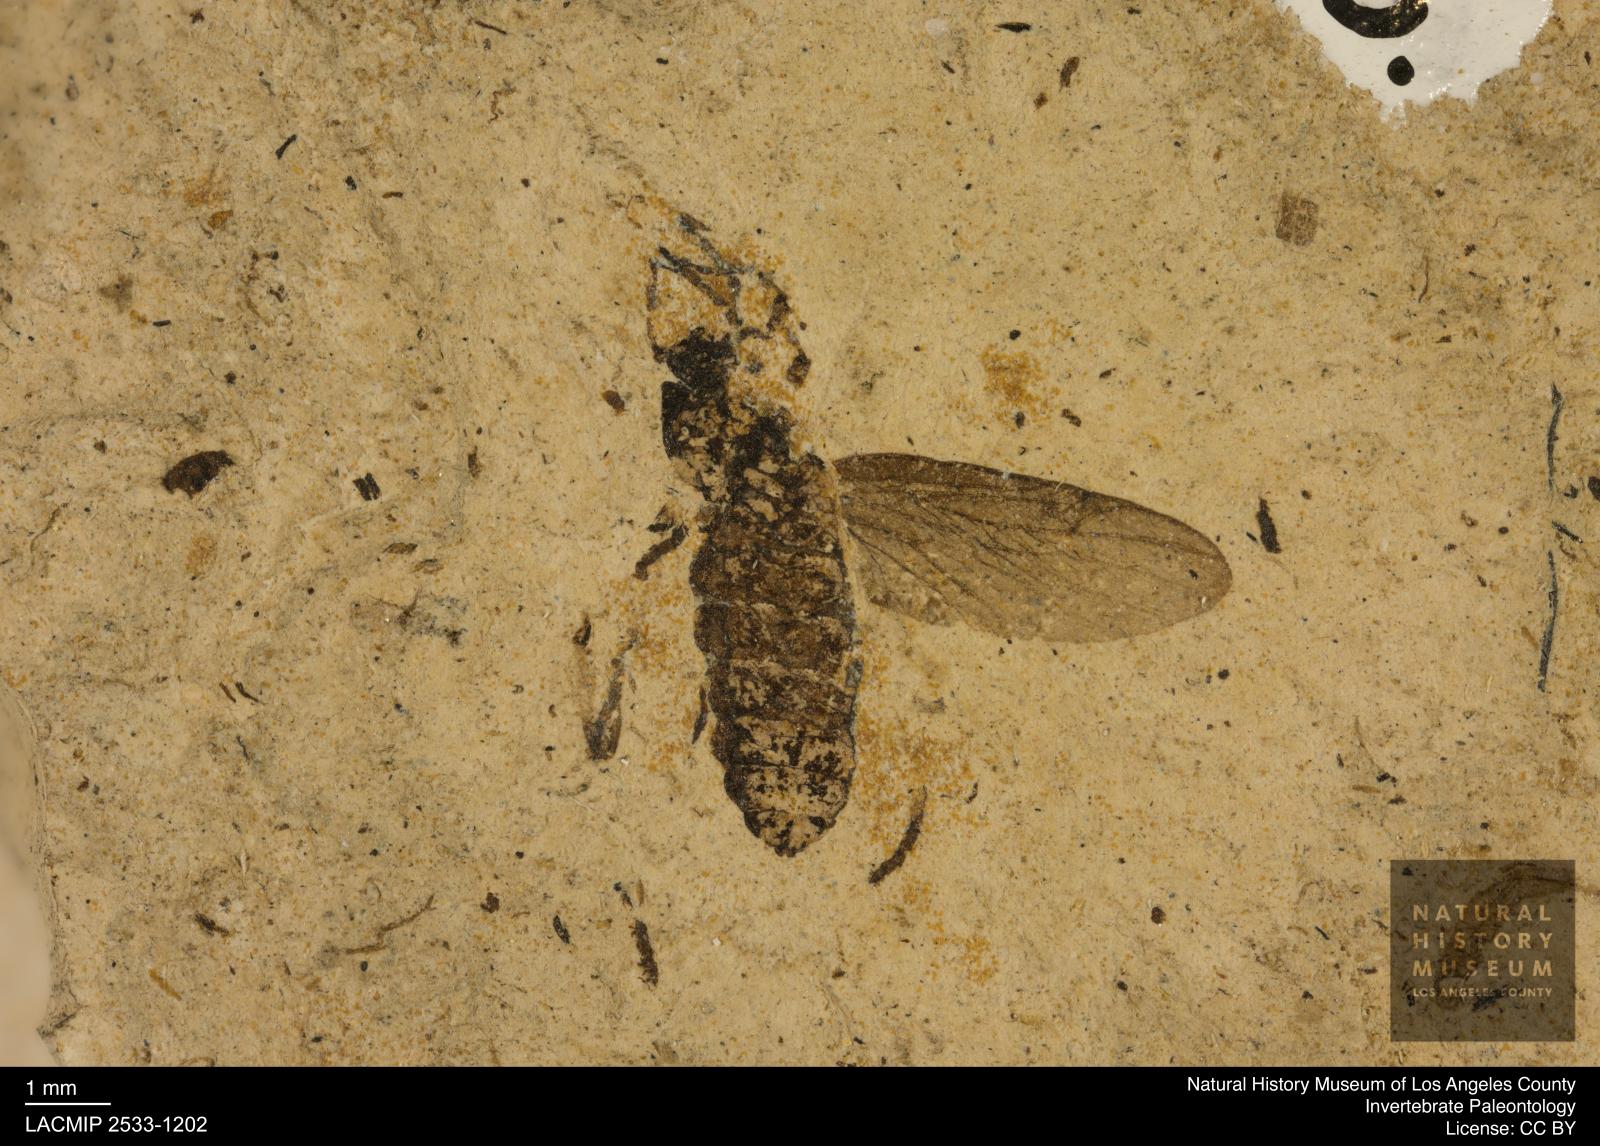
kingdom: Animalia
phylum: Arthropoda
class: Insecta
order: Diptera
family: Bibionidae
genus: Plecia
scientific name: Plecia stygia
